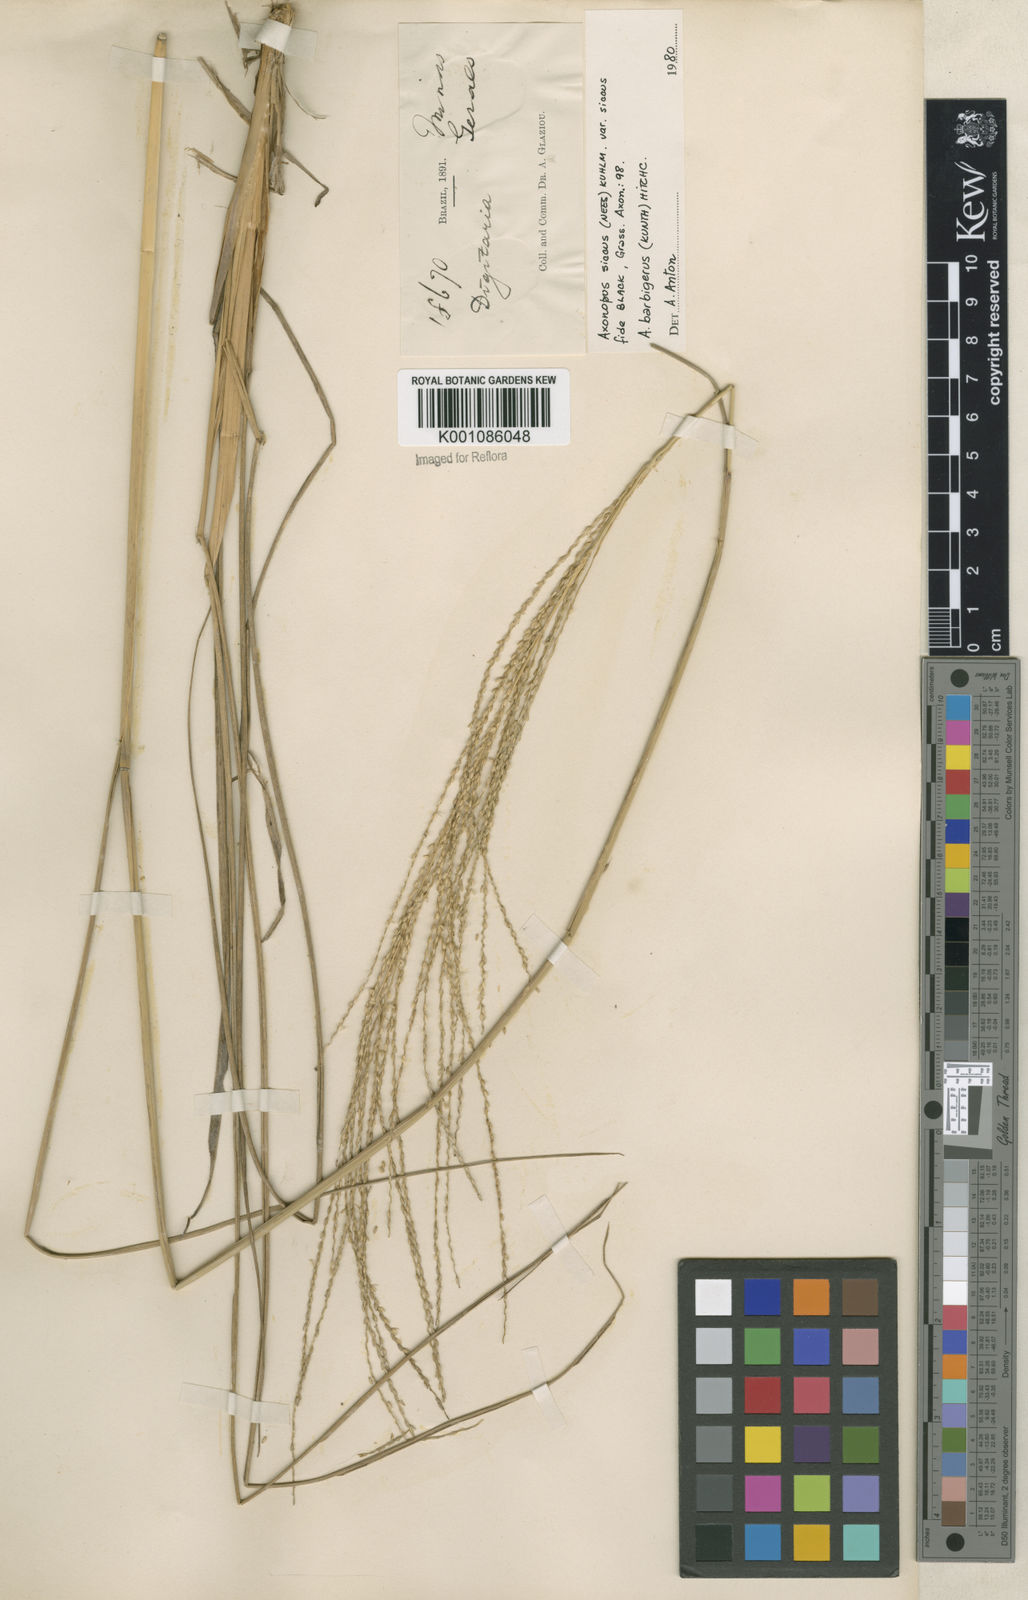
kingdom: Plantae
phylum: Tracheophyta
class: Liliopsida
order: Poales
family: Poaceae
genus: Axonopus
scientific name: Axonopus siccus
